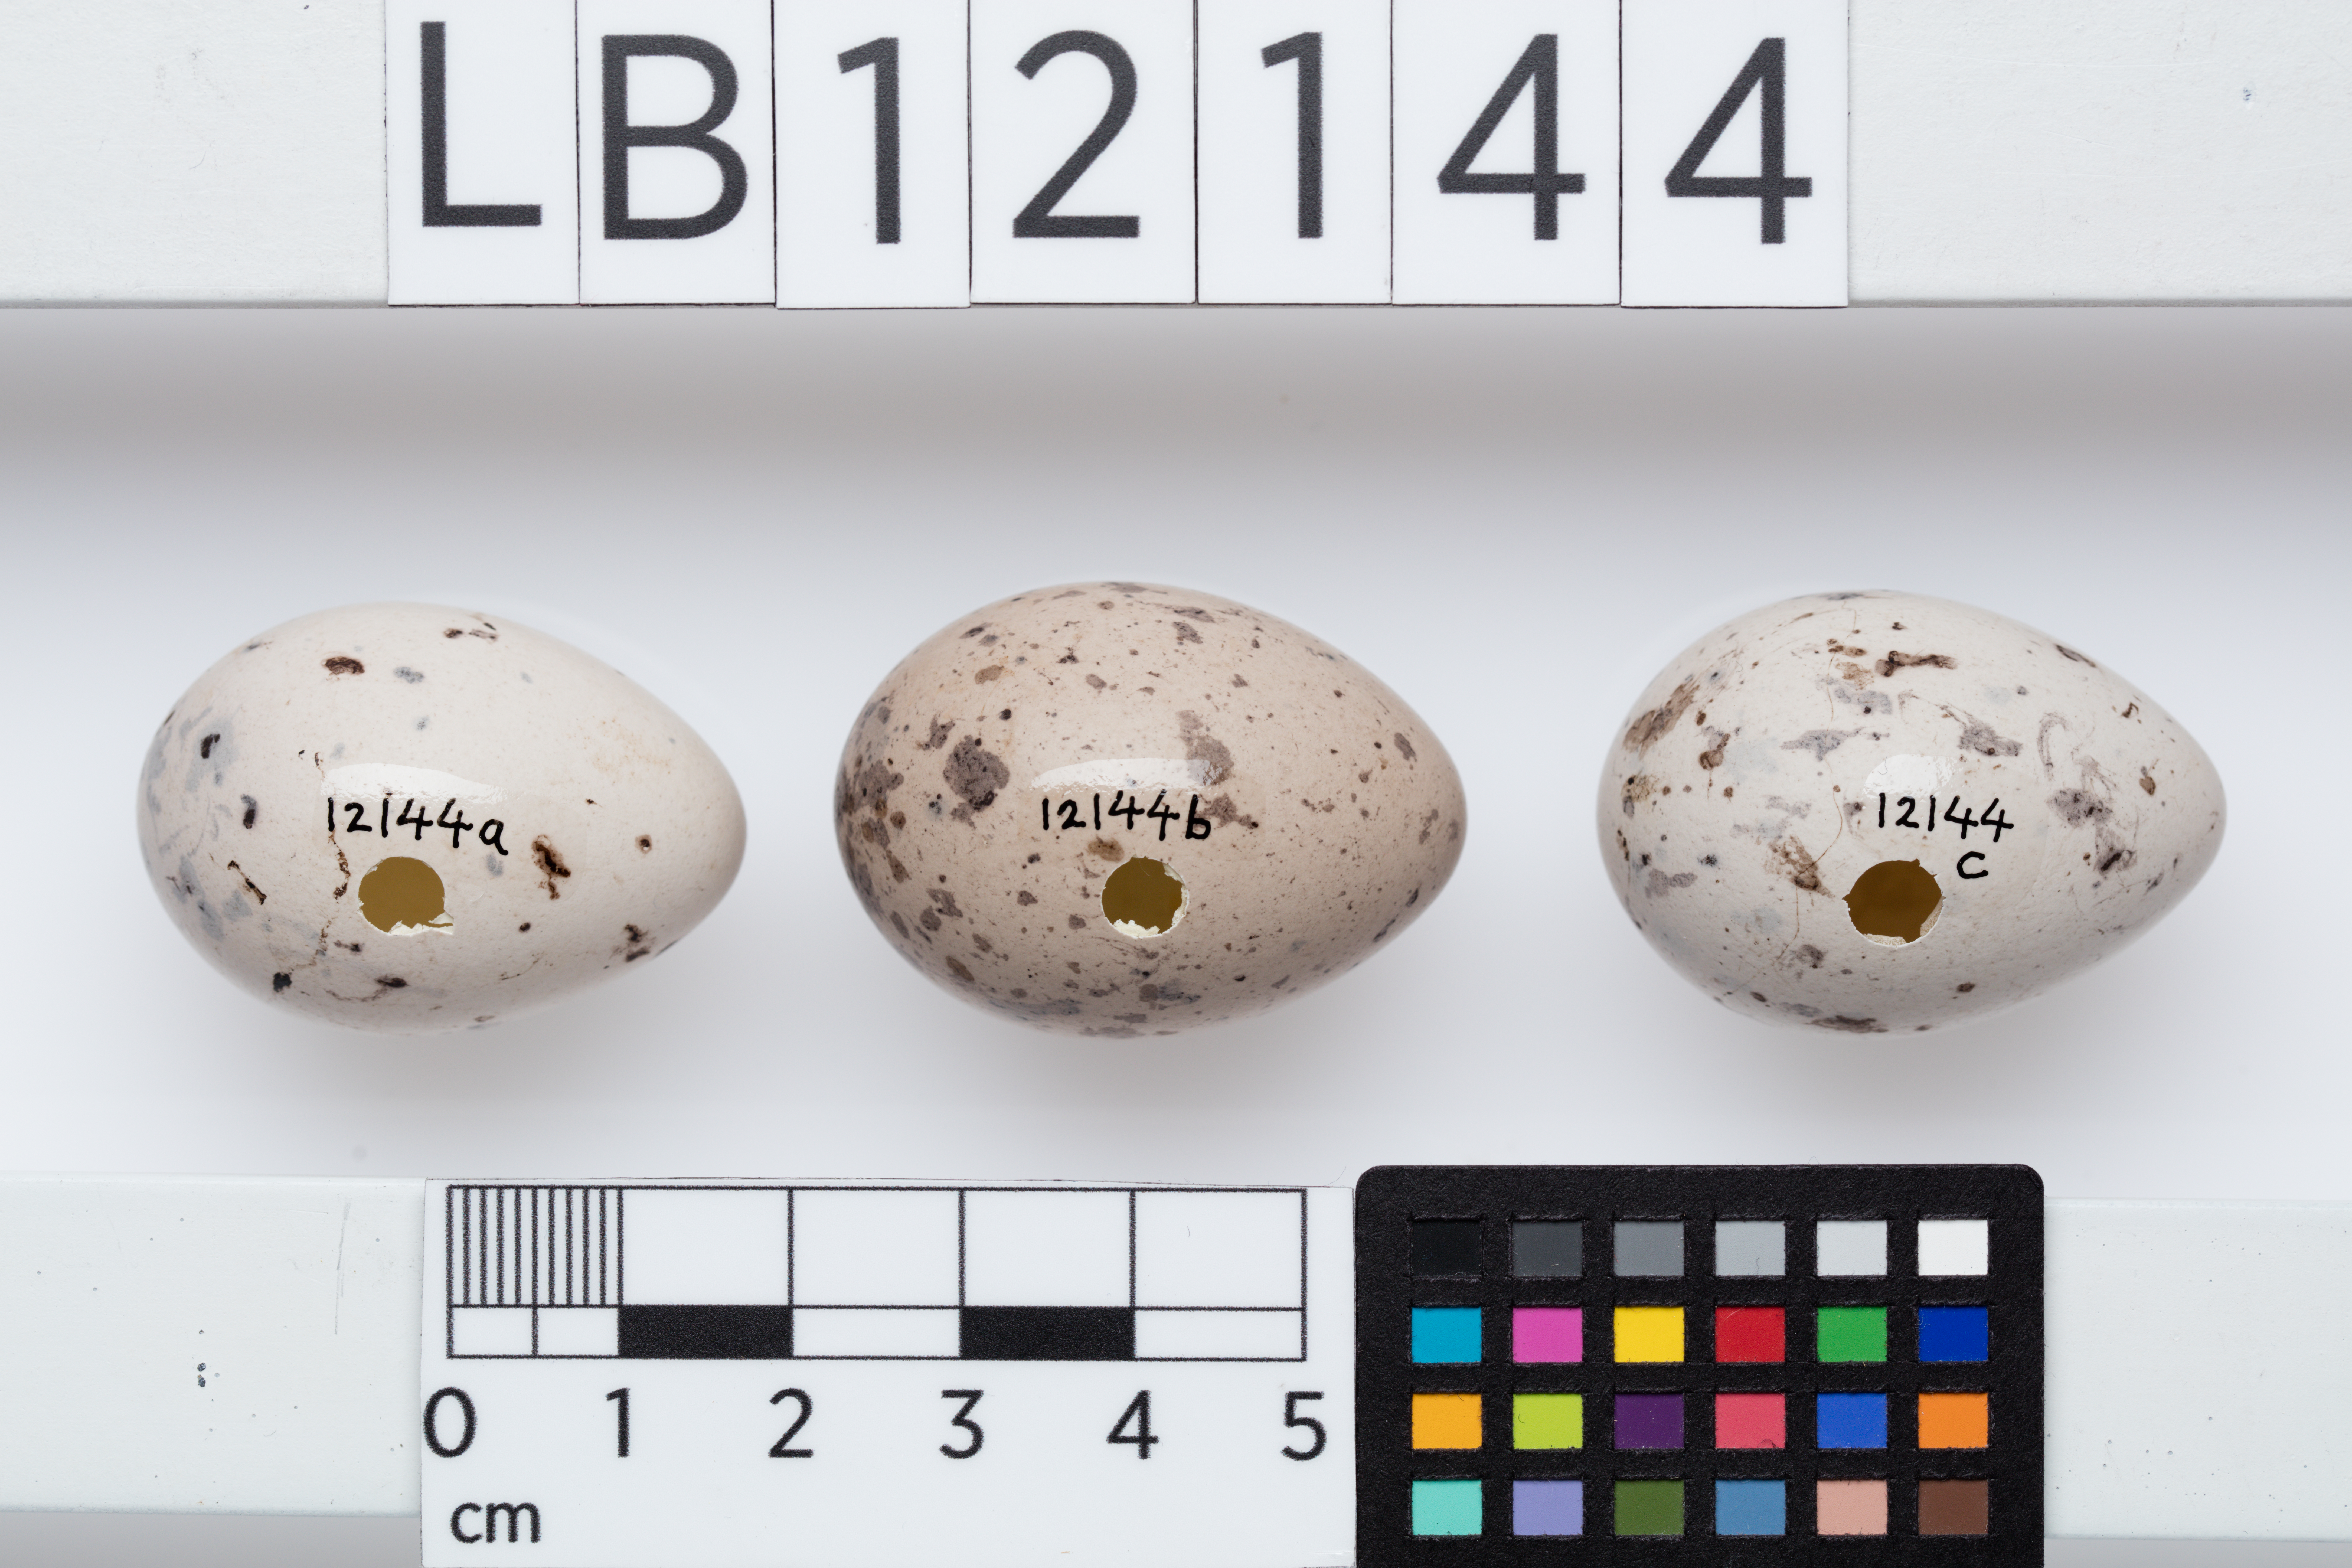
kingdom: Animalia
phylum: Chordata
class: Aves
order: Passeriformes
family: Callaeatidae
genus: Callaeas
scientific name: Callaeas cinereus
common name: South island kokako
